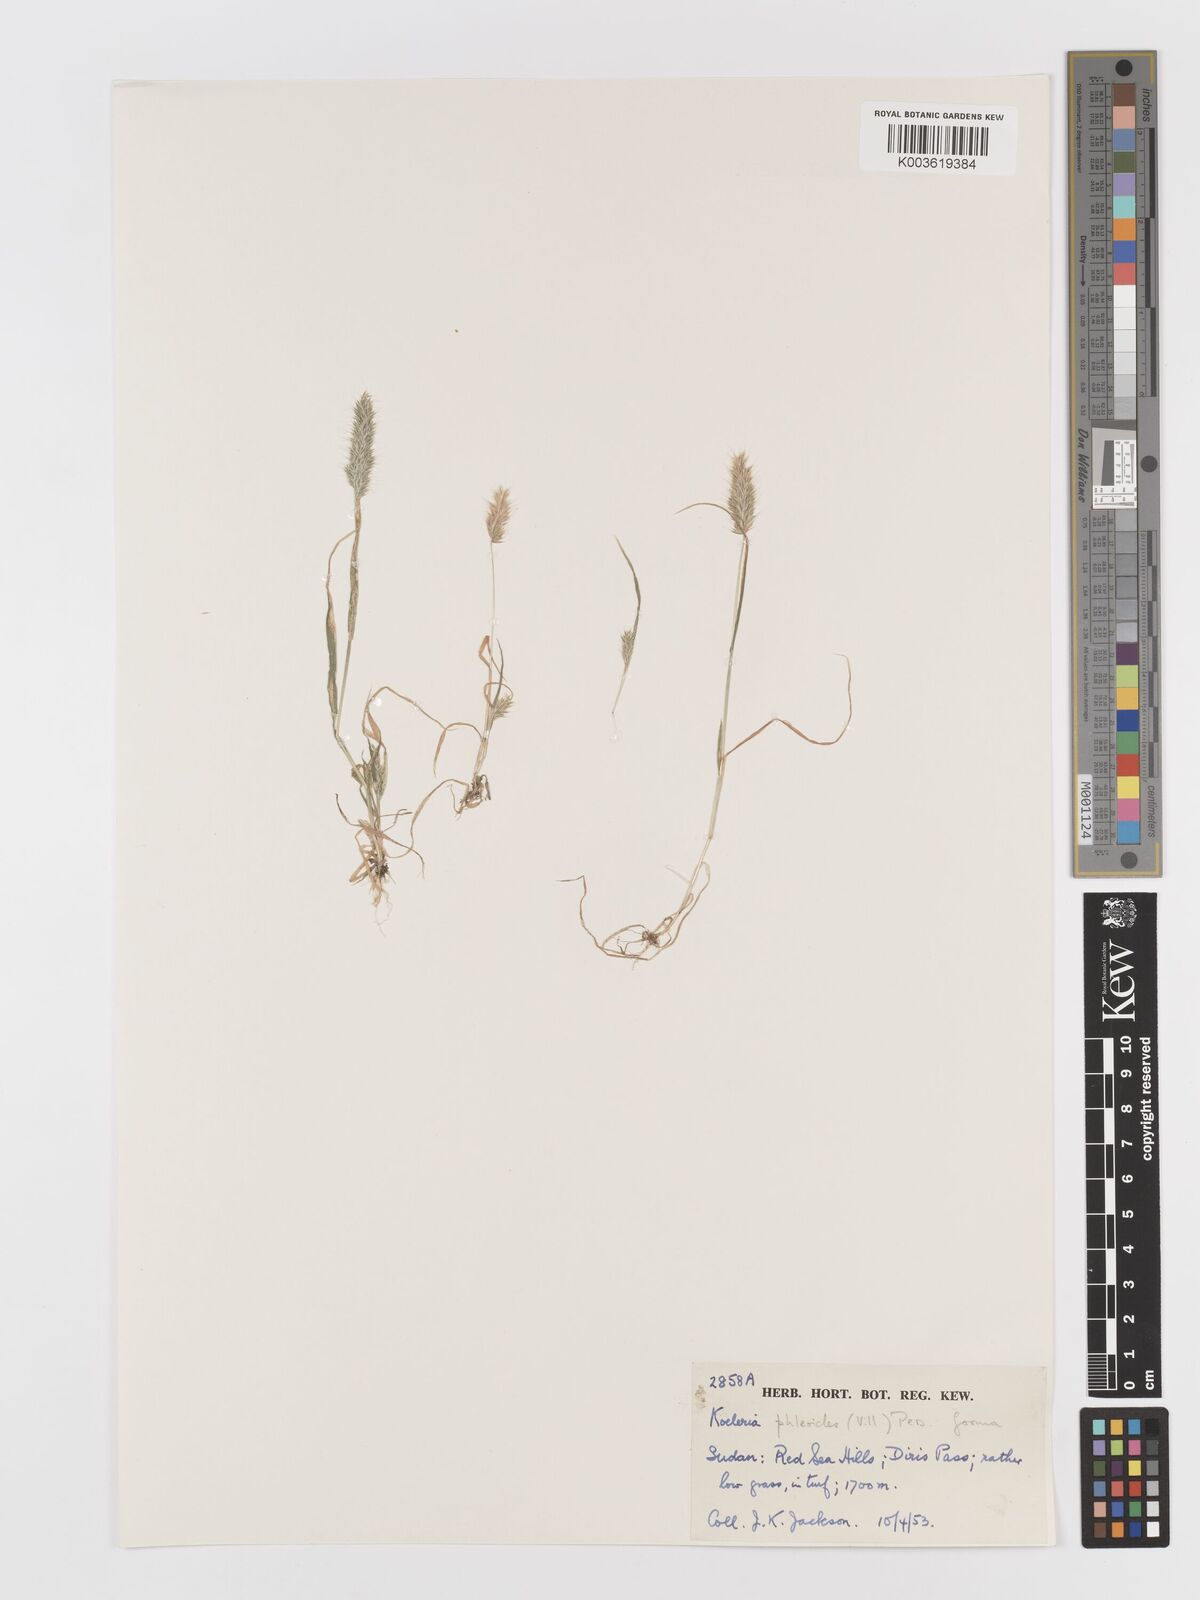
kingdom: Plantae
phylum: Tracheophyta
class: Liliopsida
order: Poales
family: Poaceae
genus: Rostraria
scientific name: Rostraria cristata
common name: Mediterranean hair-grass
